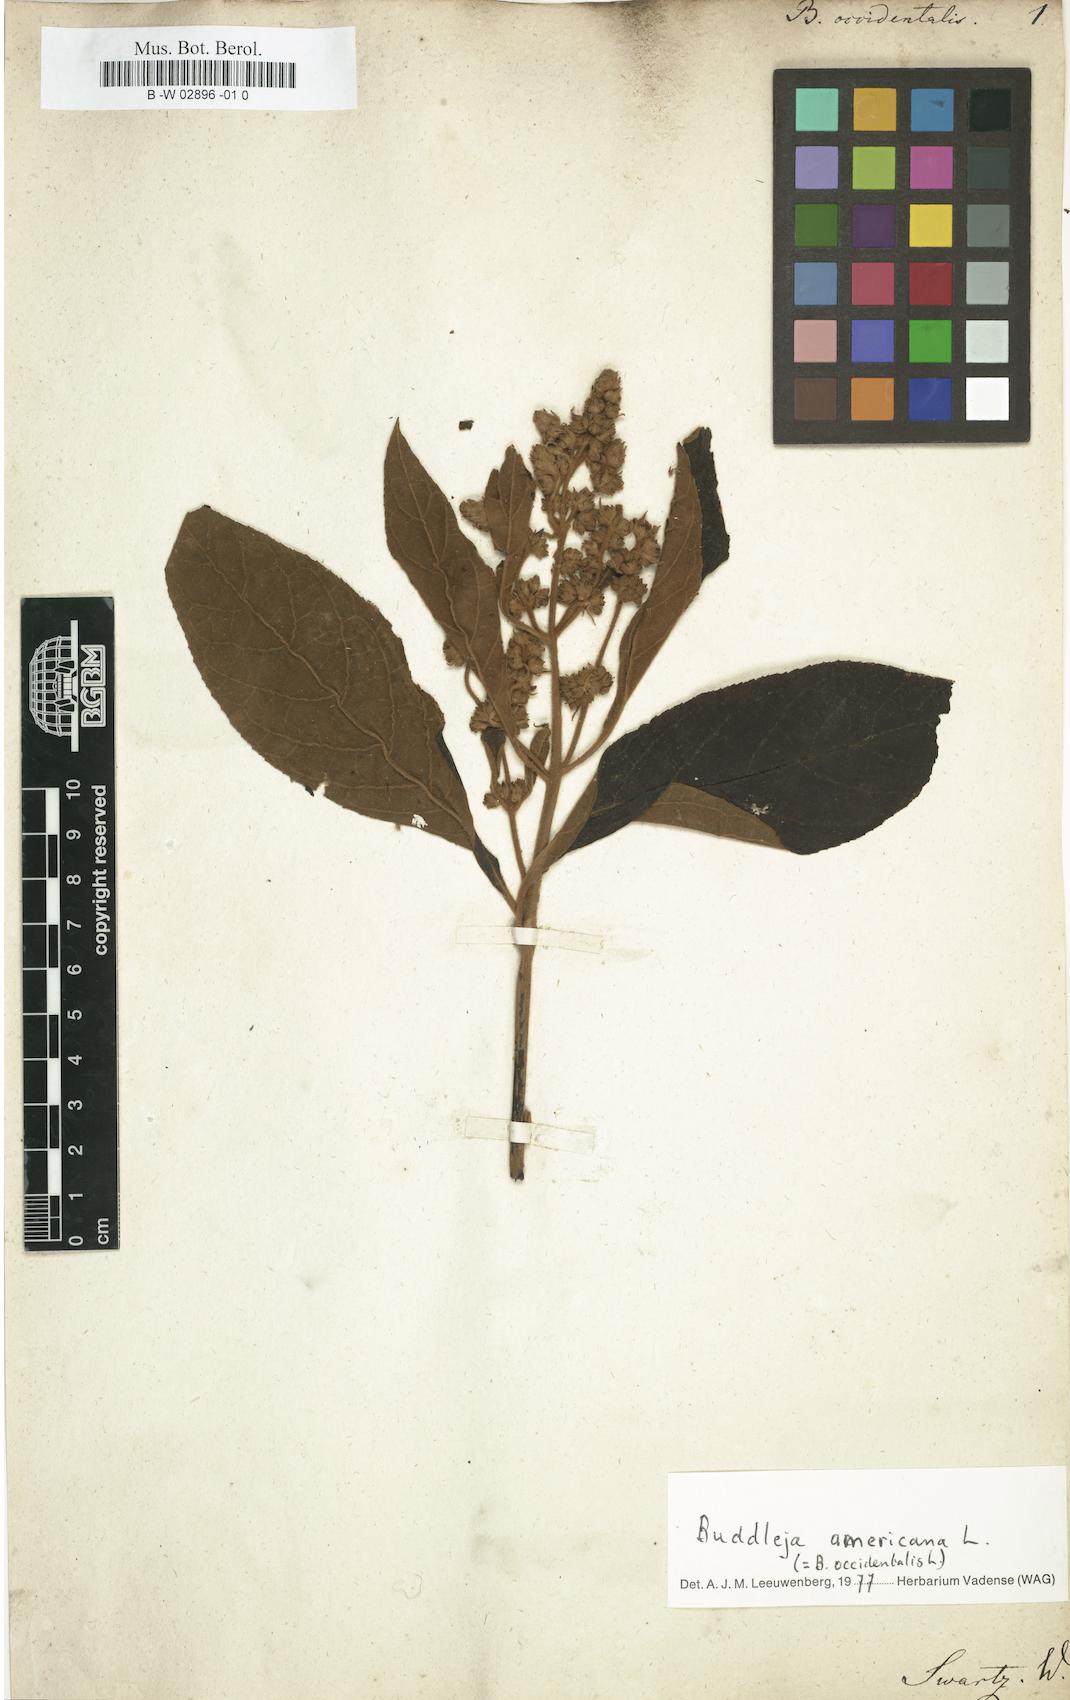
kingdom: Plantae
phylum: Tracheophyta
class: Magnoliopsida
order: Lamiales
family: Scrophulariaceae
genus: Buddleja
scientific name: Buddleja americana
